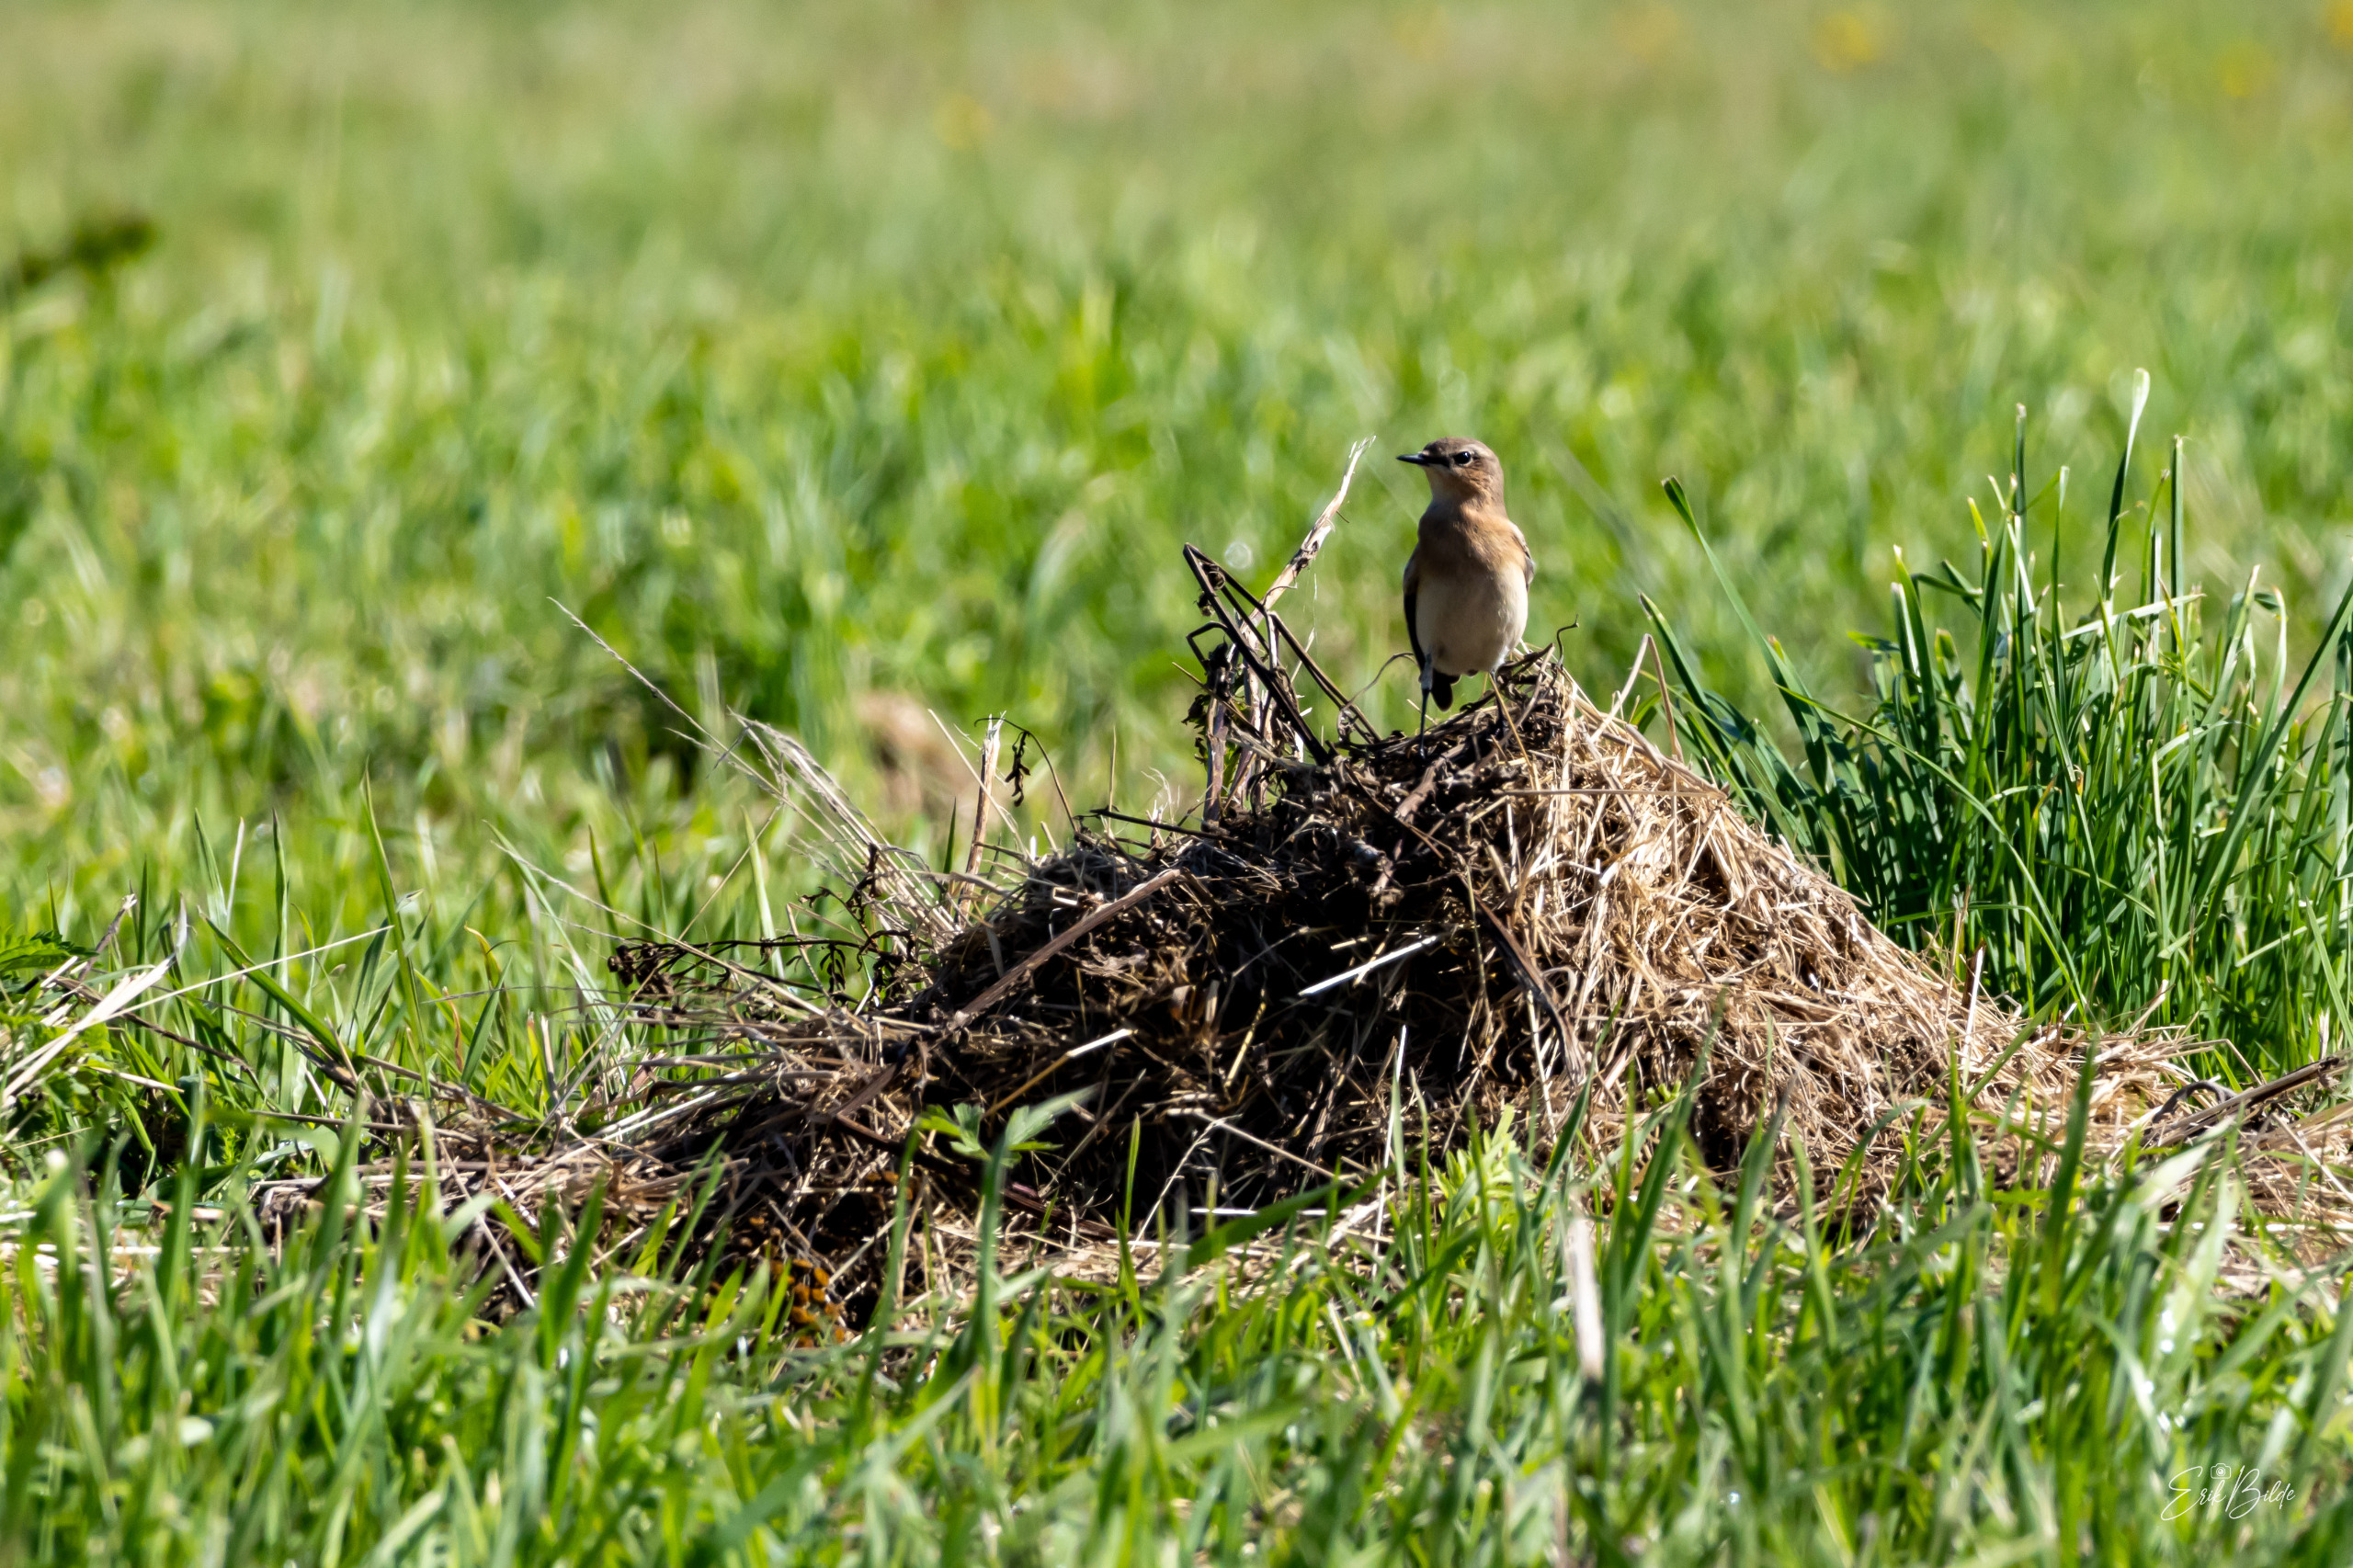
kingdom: Animalia
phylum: Chordata
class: Aves
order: Passeriformes
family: Muscicapidae
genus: Oenanthe
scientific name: Oenanthe oenanthe
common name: Stenpikker
